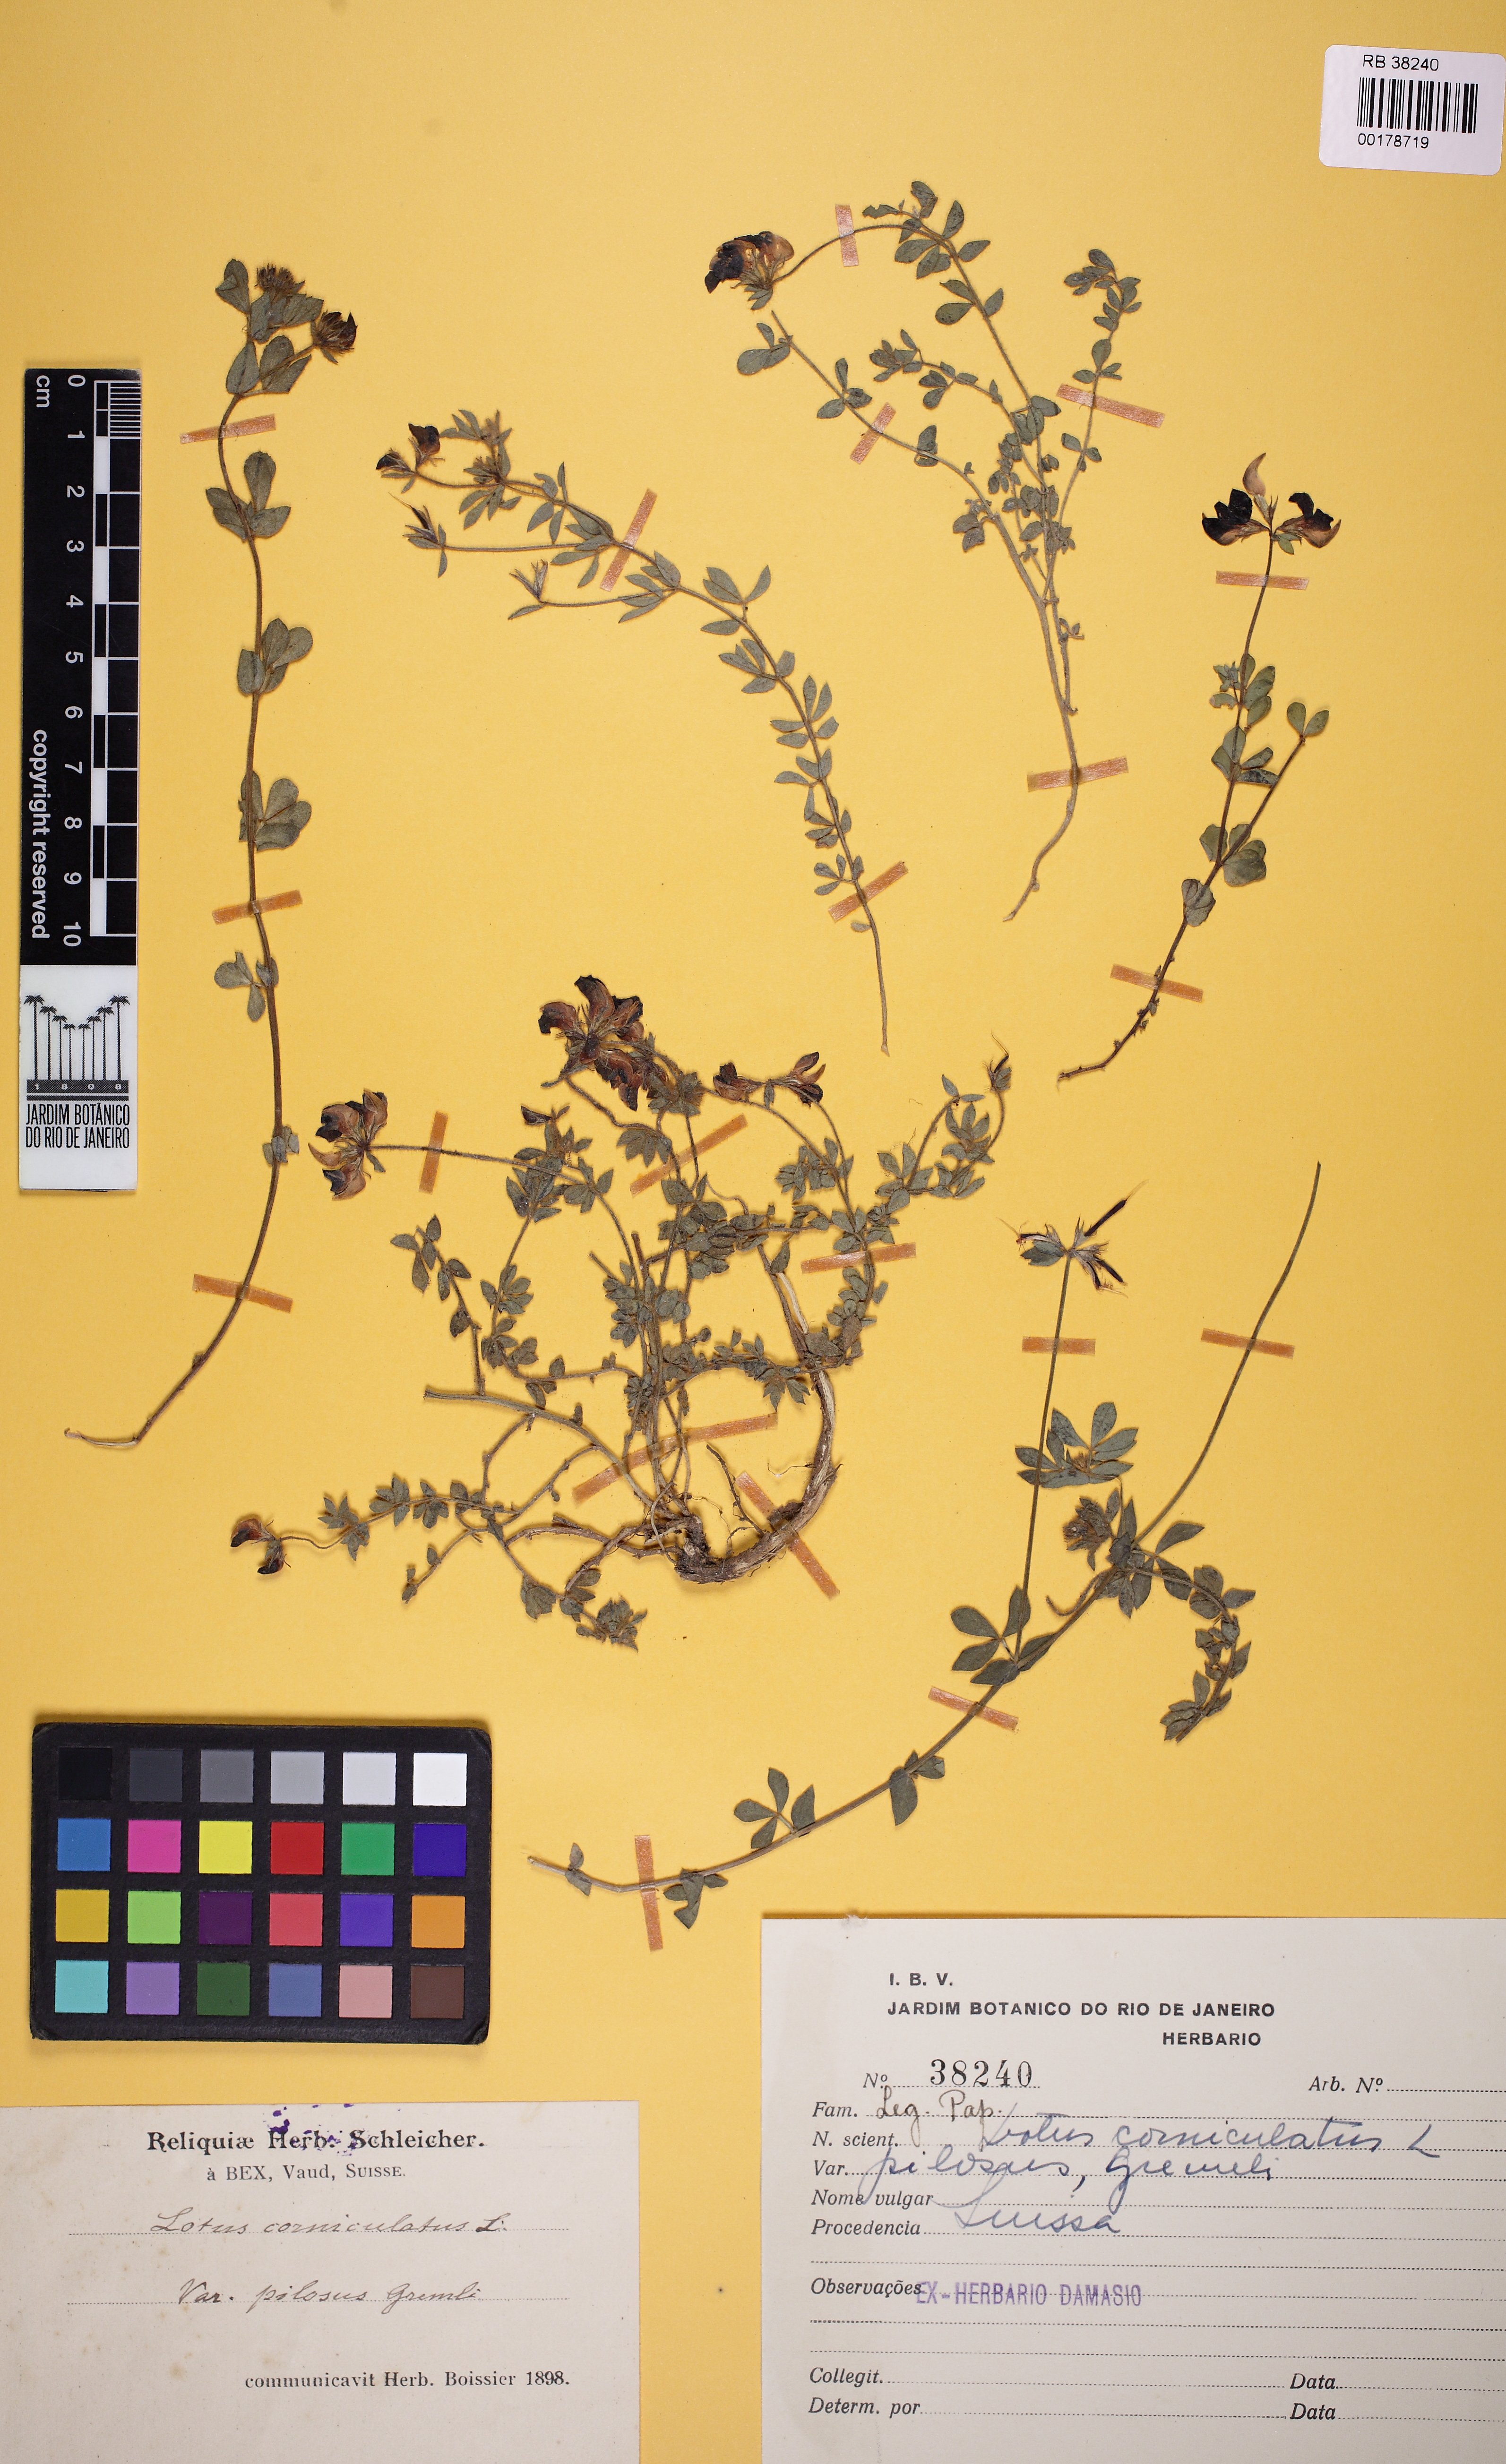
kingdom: Plantae
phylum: Tracheophyta
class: Magnoliopsida
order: Fabales
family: Fabaceae
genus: Lotus
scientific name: Lotus corniculatus
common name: Common bird's-foot-trefoil
